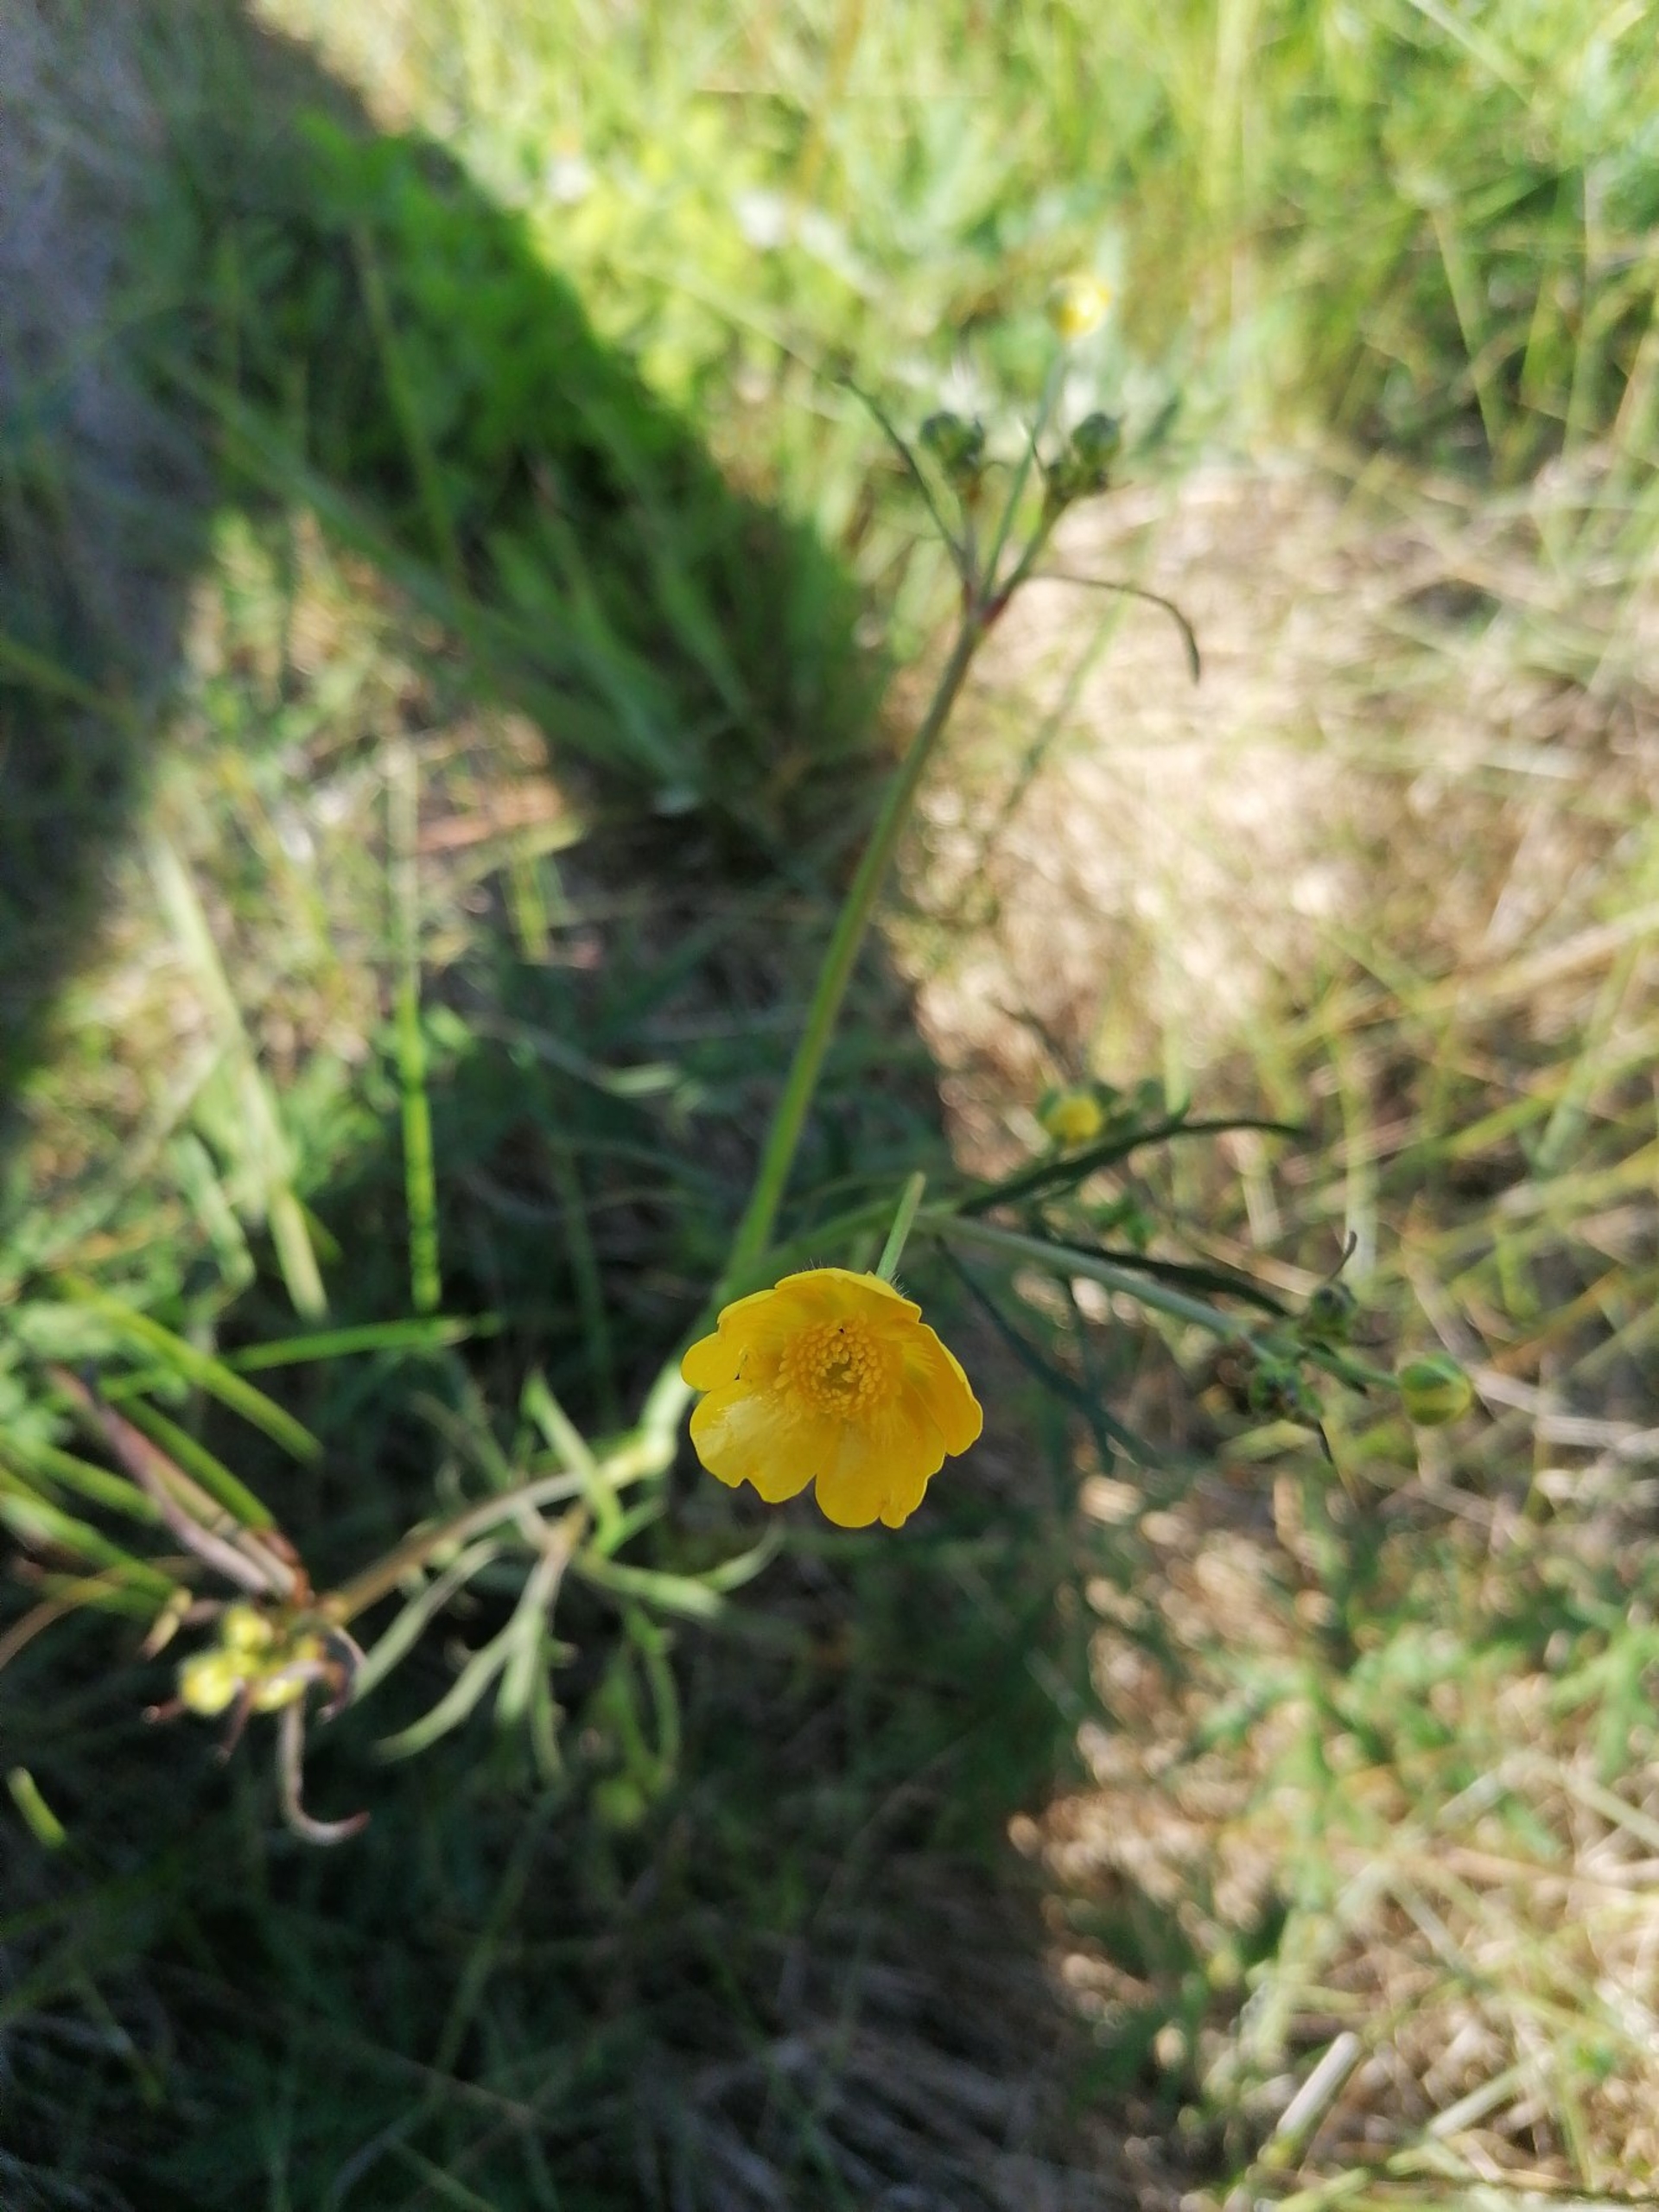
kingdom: Plantae
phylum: Tracheophyta
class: Magnoliopsida
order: Ranunculales
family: Ranunculaceae
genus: Ranunculus
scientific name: Ranunculus acris
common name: Bidende ranunkel
